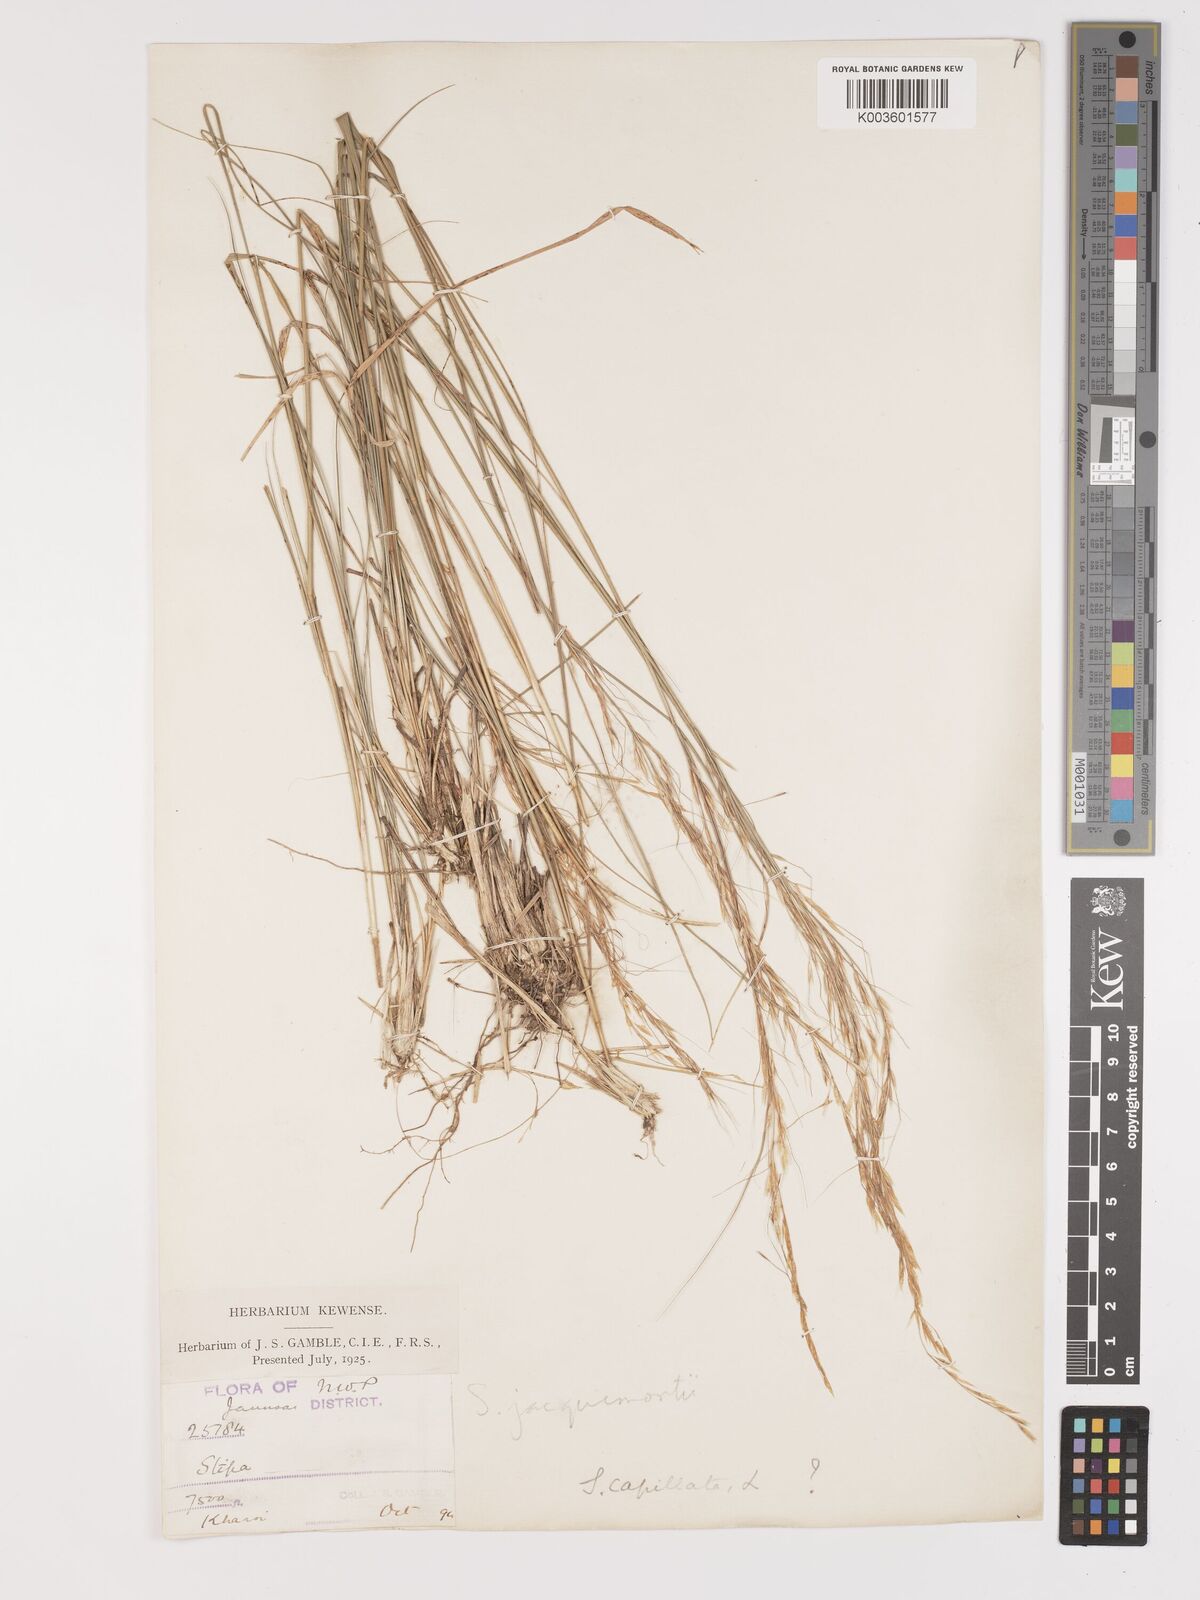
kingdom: Plantae
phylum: Tracheophyta
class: Liliopsida
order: Poales
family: Poaceae
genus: Achnatherum
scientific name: Achnatherum jacquemontii
